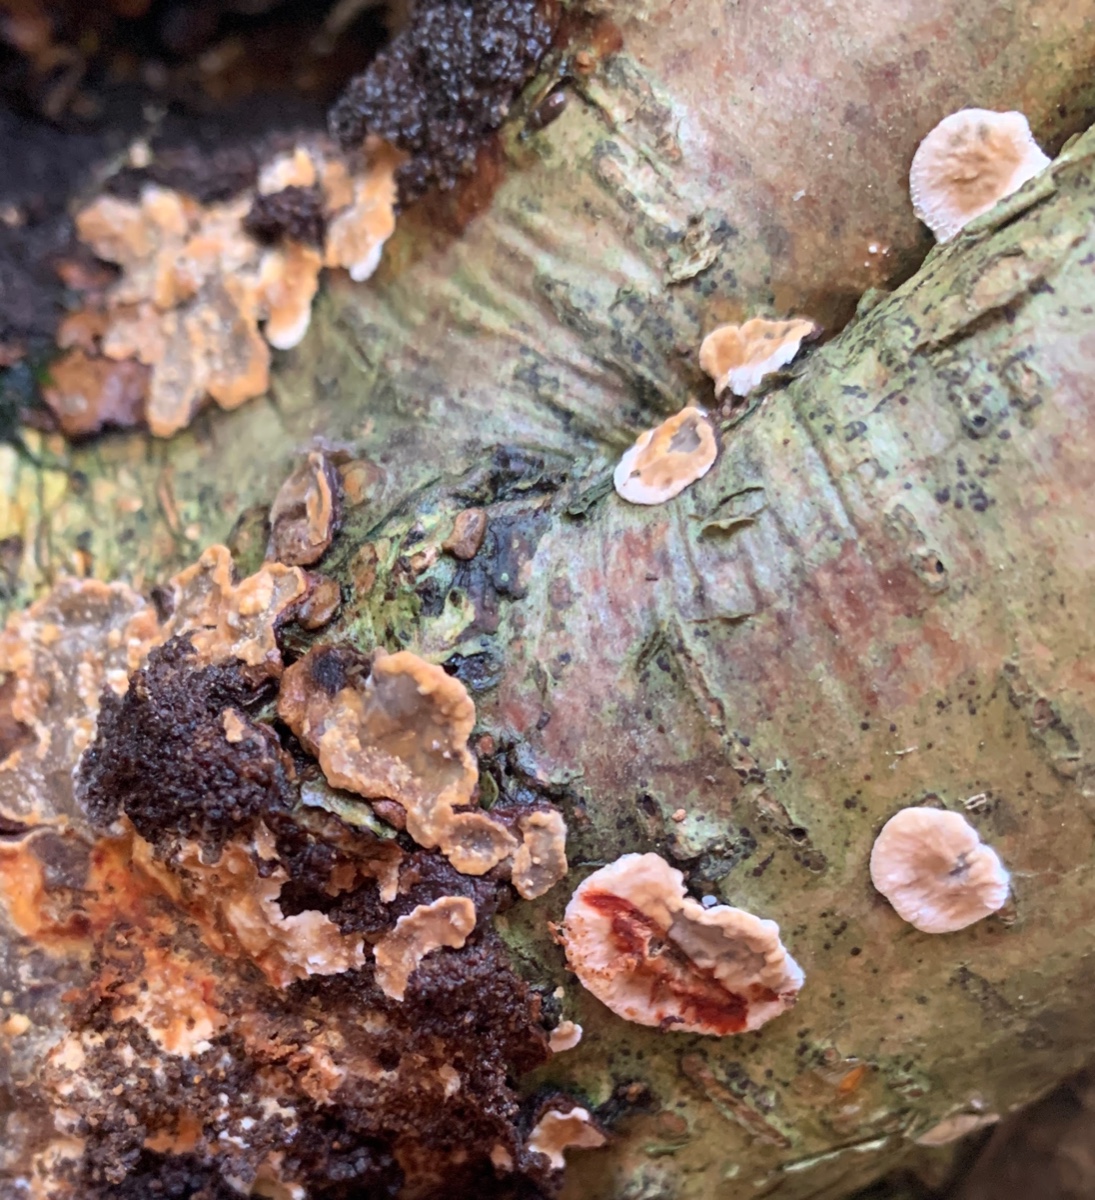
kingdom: Fungi
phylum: Basidiomycota
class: Agaricomycetes
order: Russulales
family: Stereaceae
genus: Stereum
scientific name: Stereum rugosum
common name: rynket lædersvamp
